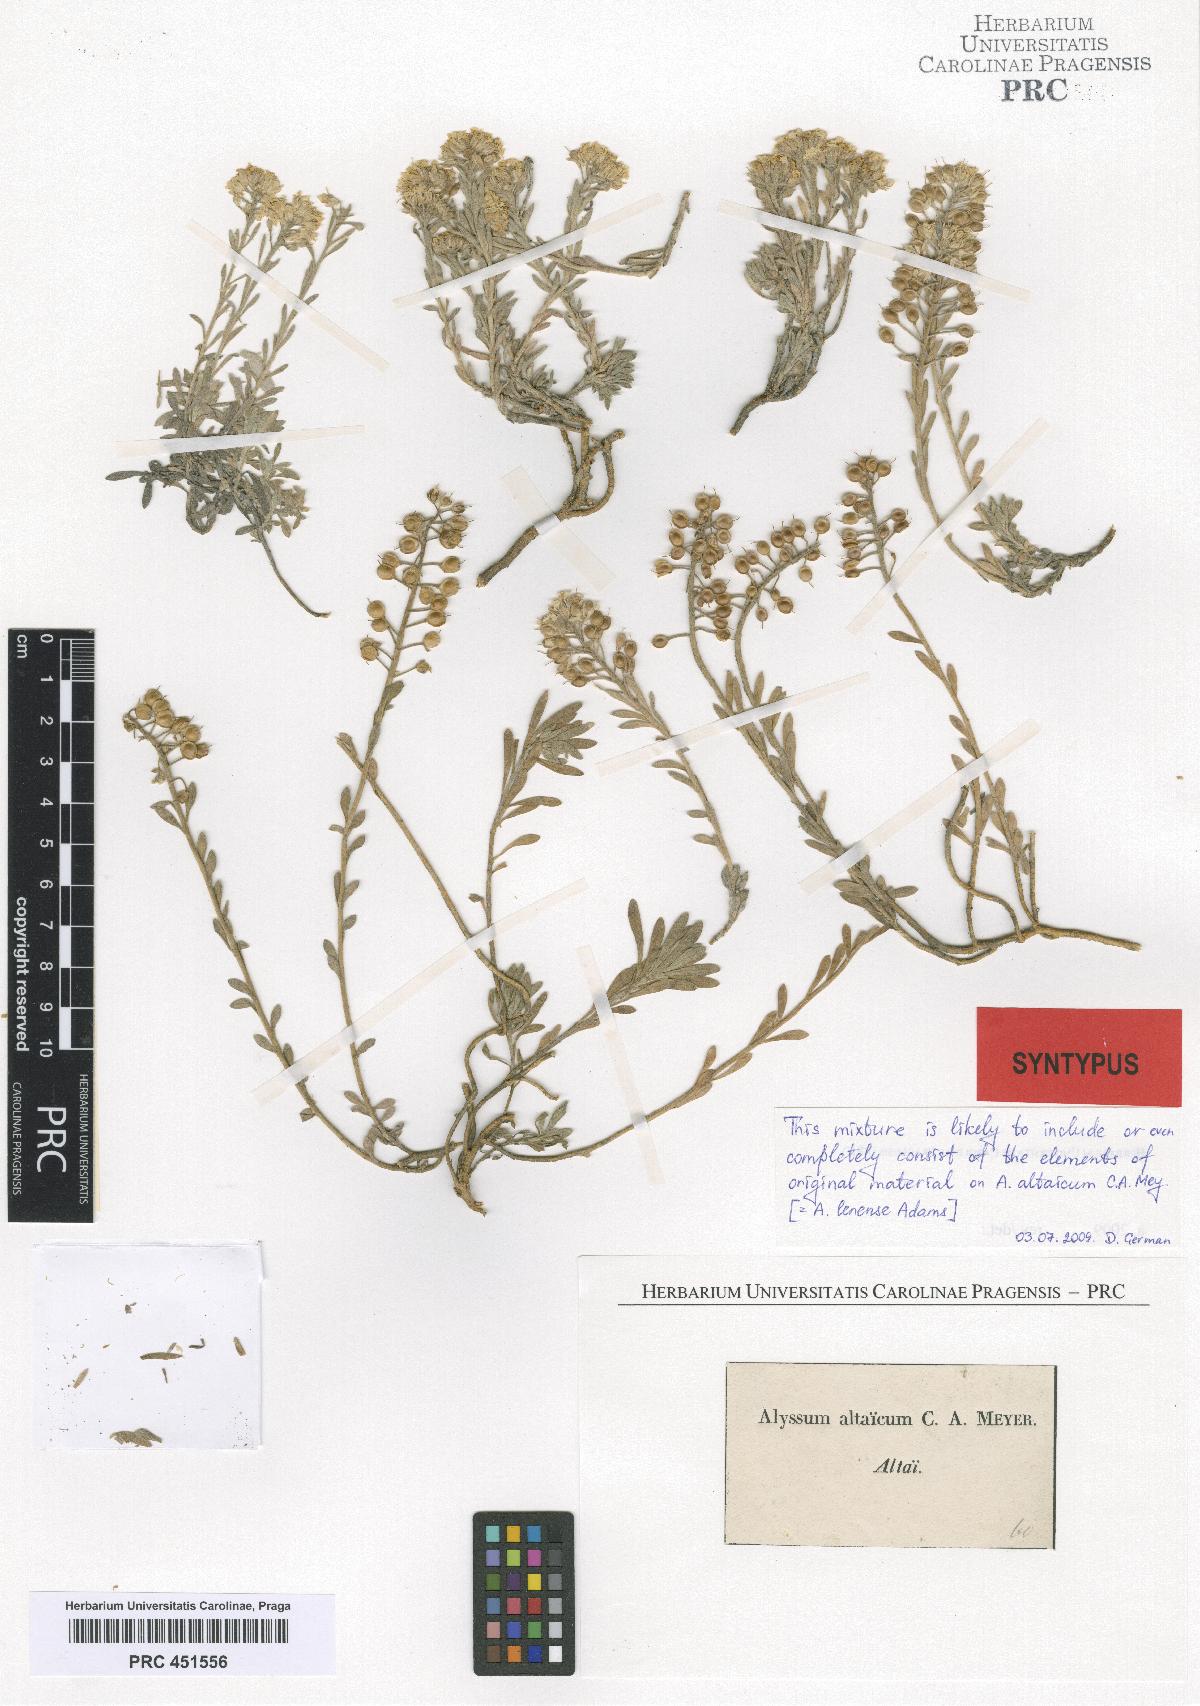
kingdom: Plantae
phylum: Tracheophyta
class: Magnoliopsida
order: Brassicales
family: Brassicaceae
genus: Alyssum
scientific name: Alyssum lenense
